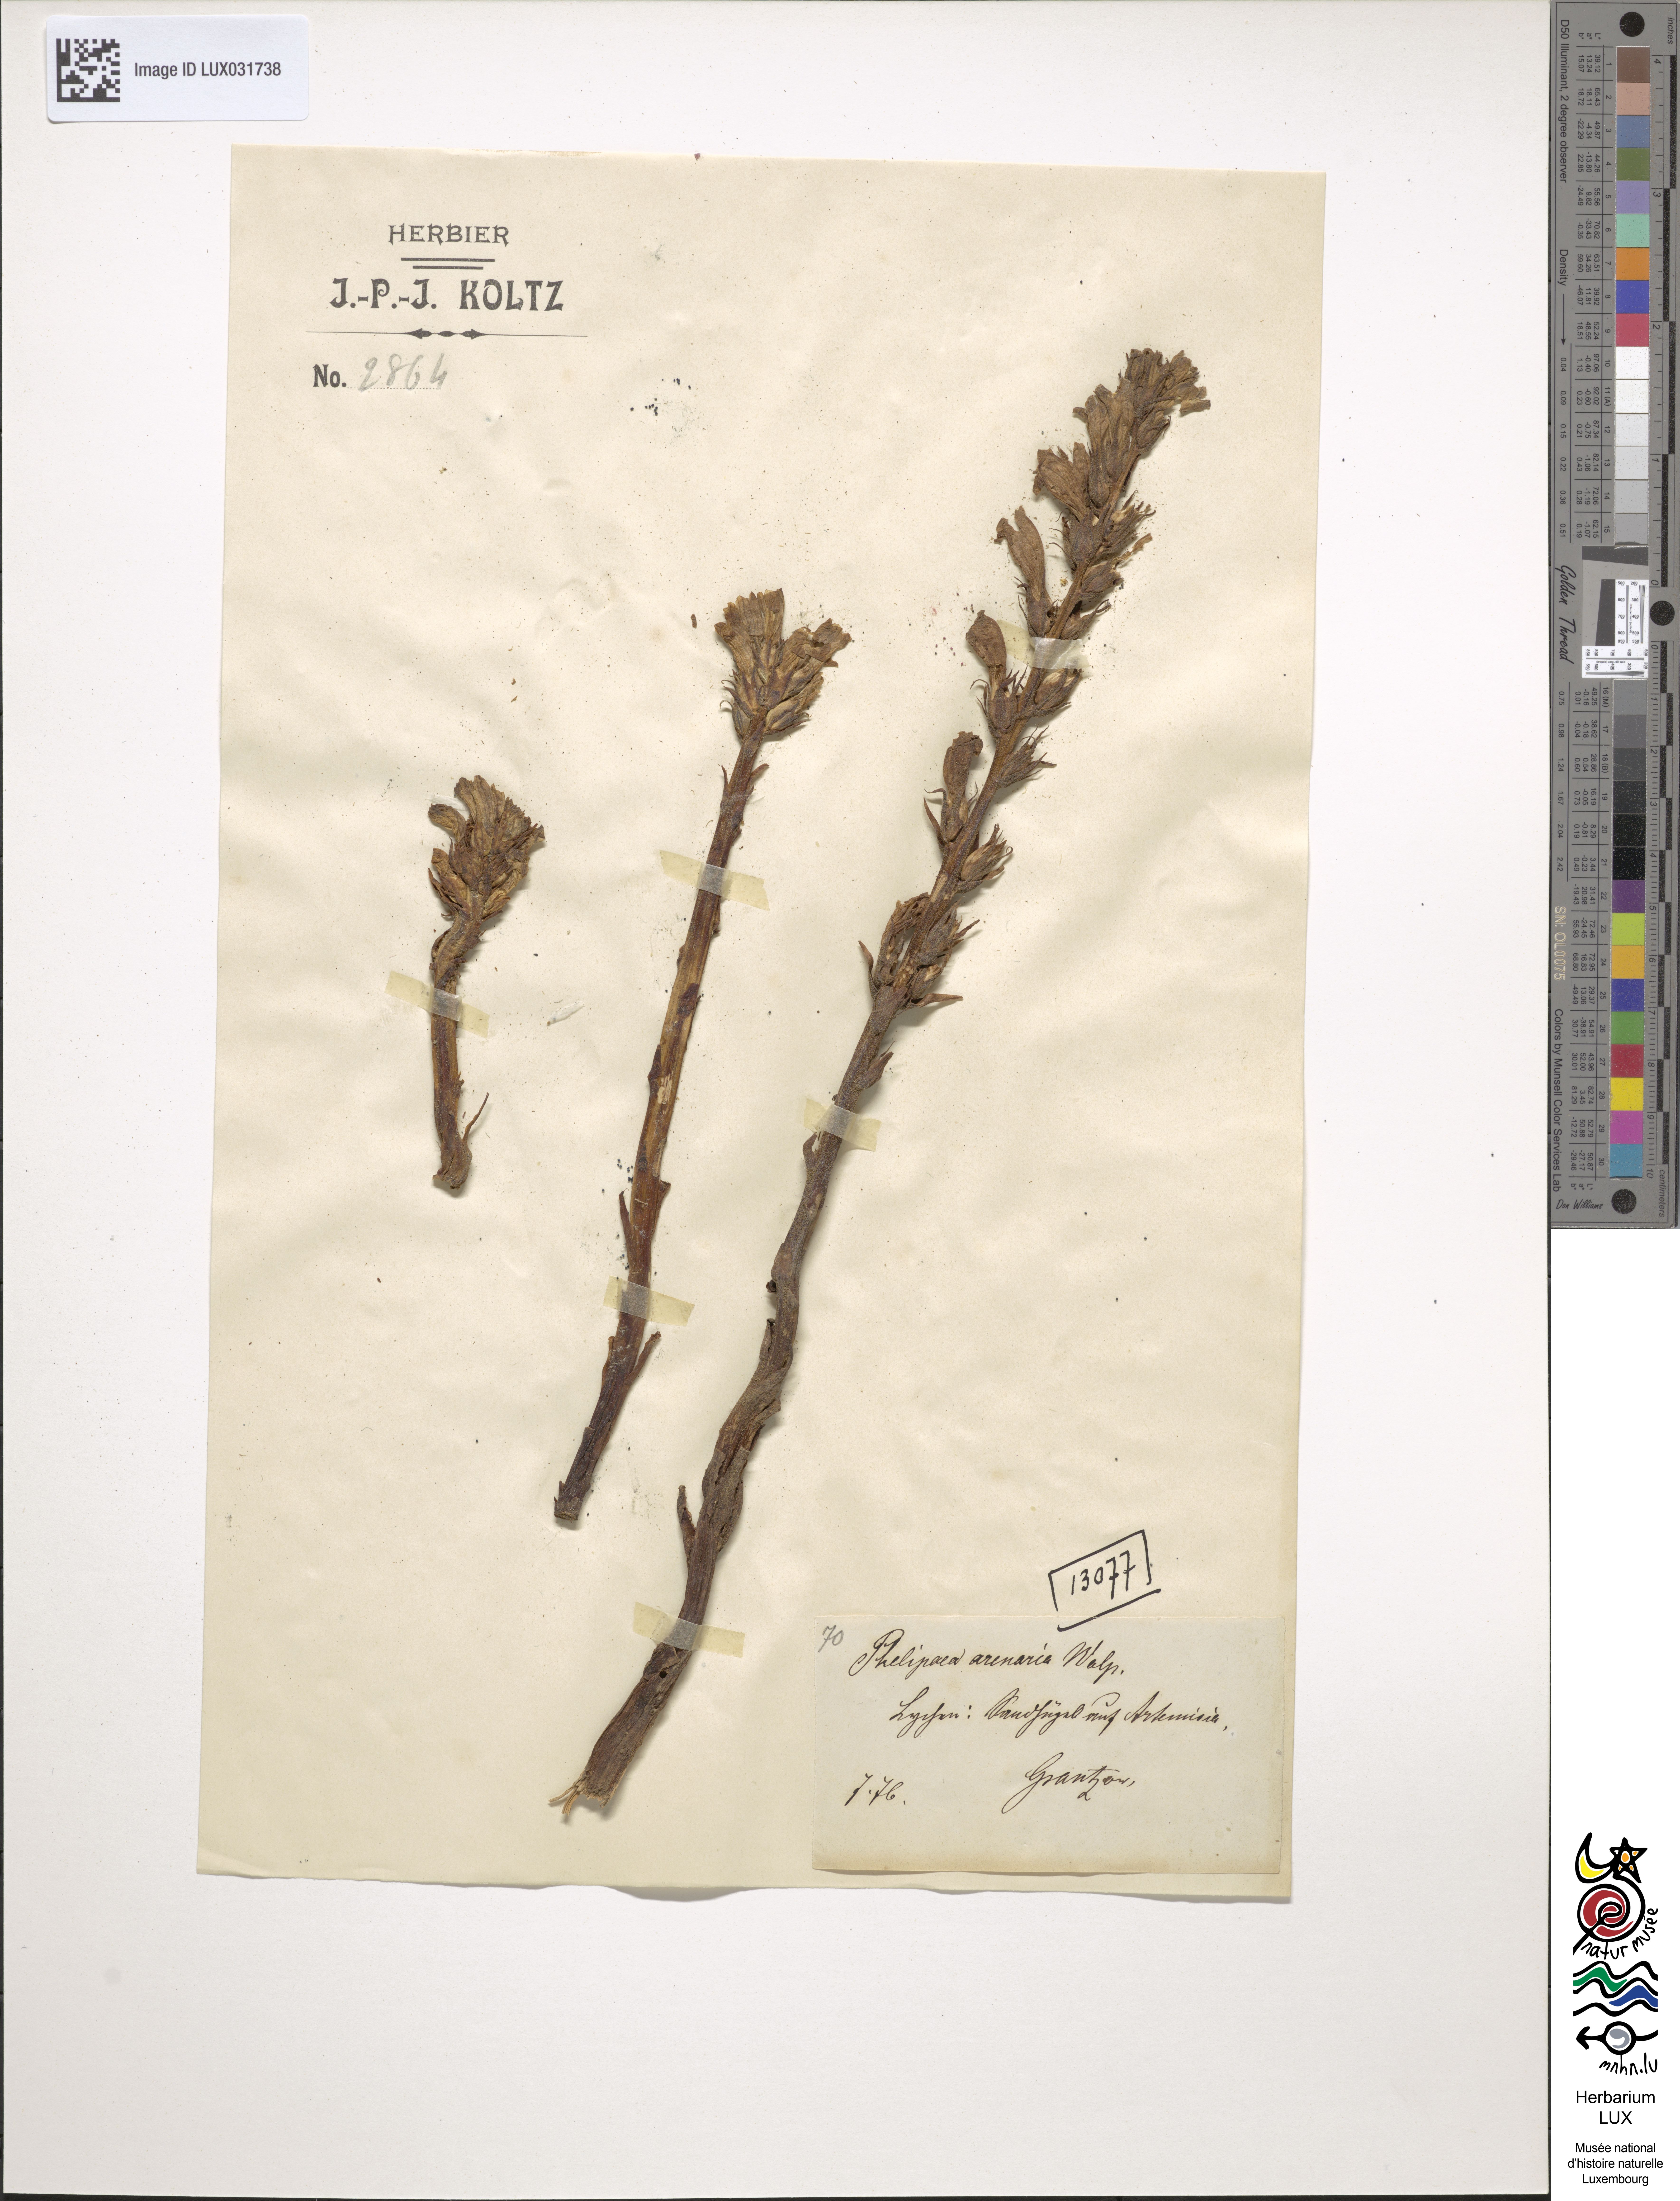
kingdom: Plantae
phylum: Tracheophyta
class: Magnoliopsida
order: Lamiales
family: Orobanchaceae
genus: Phelipanche
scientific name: Phelipanche arenaria
